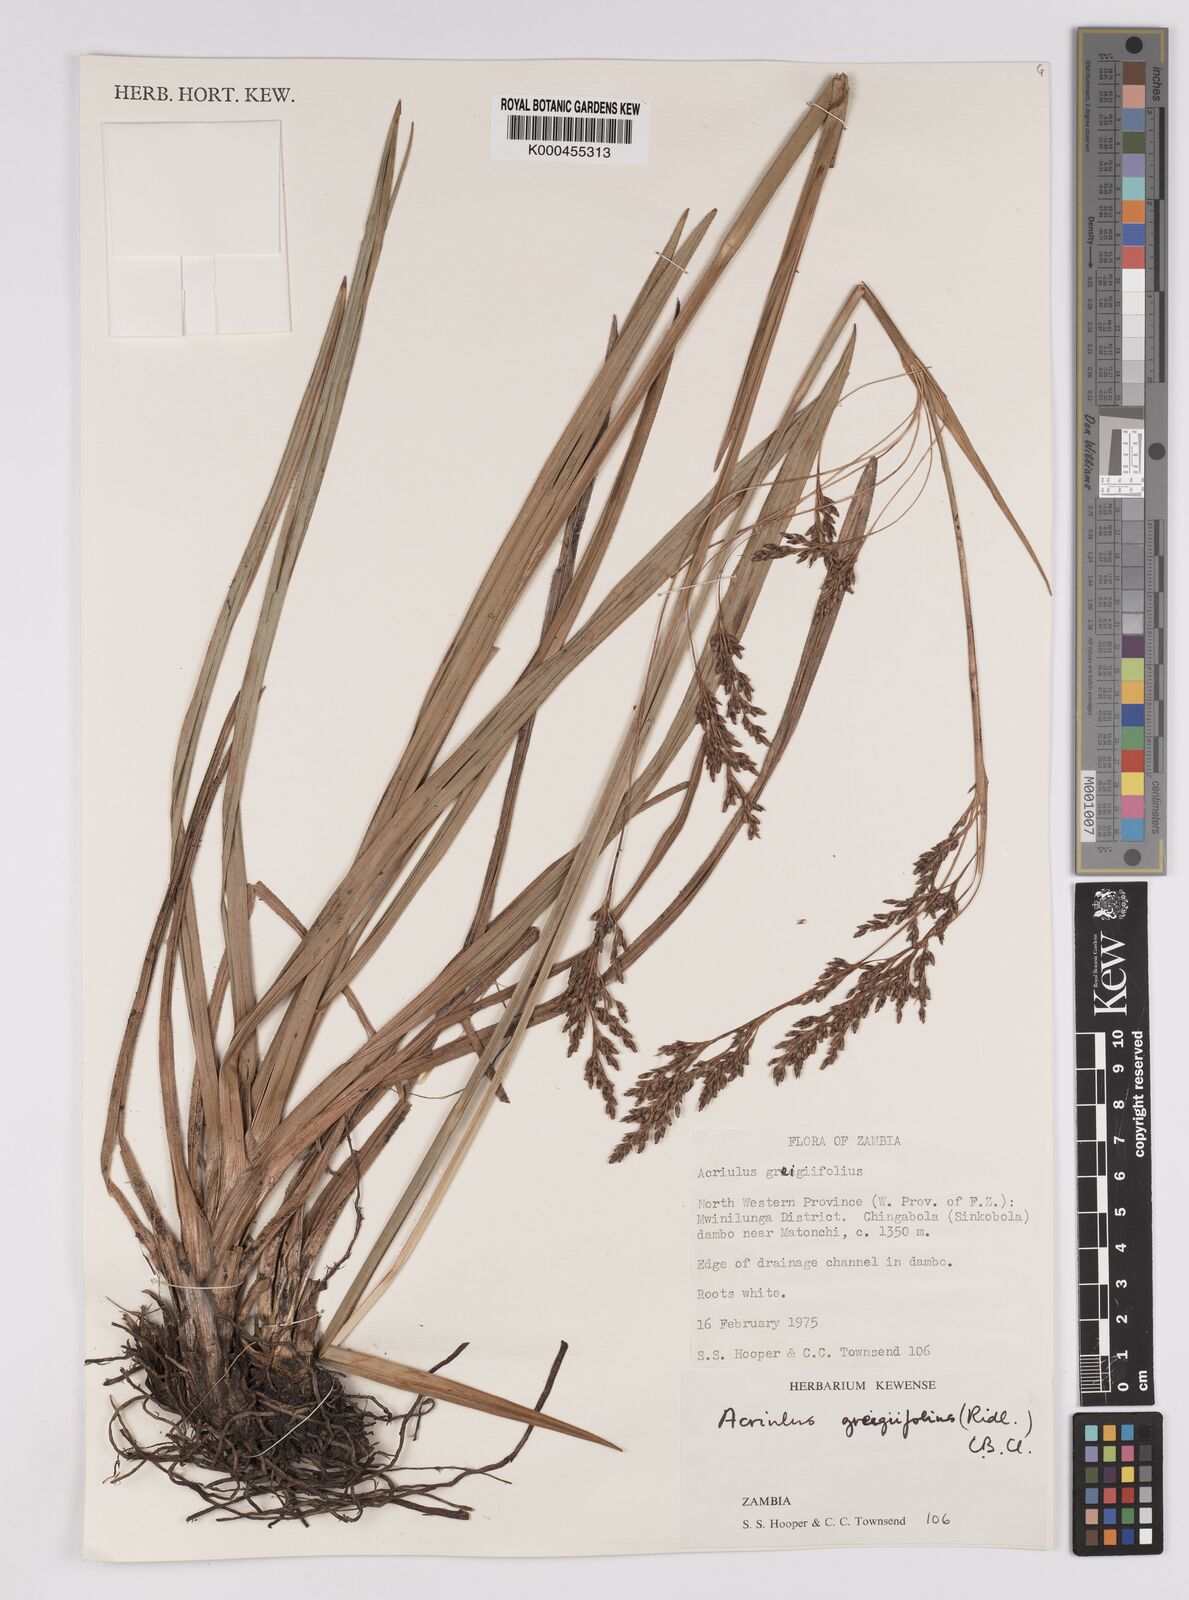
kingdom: Plantae
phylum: Tracheophyta
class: Liliopsida
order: Poales
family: Cyperaceae
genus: Scleria
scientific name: Scleria greigiifolia
